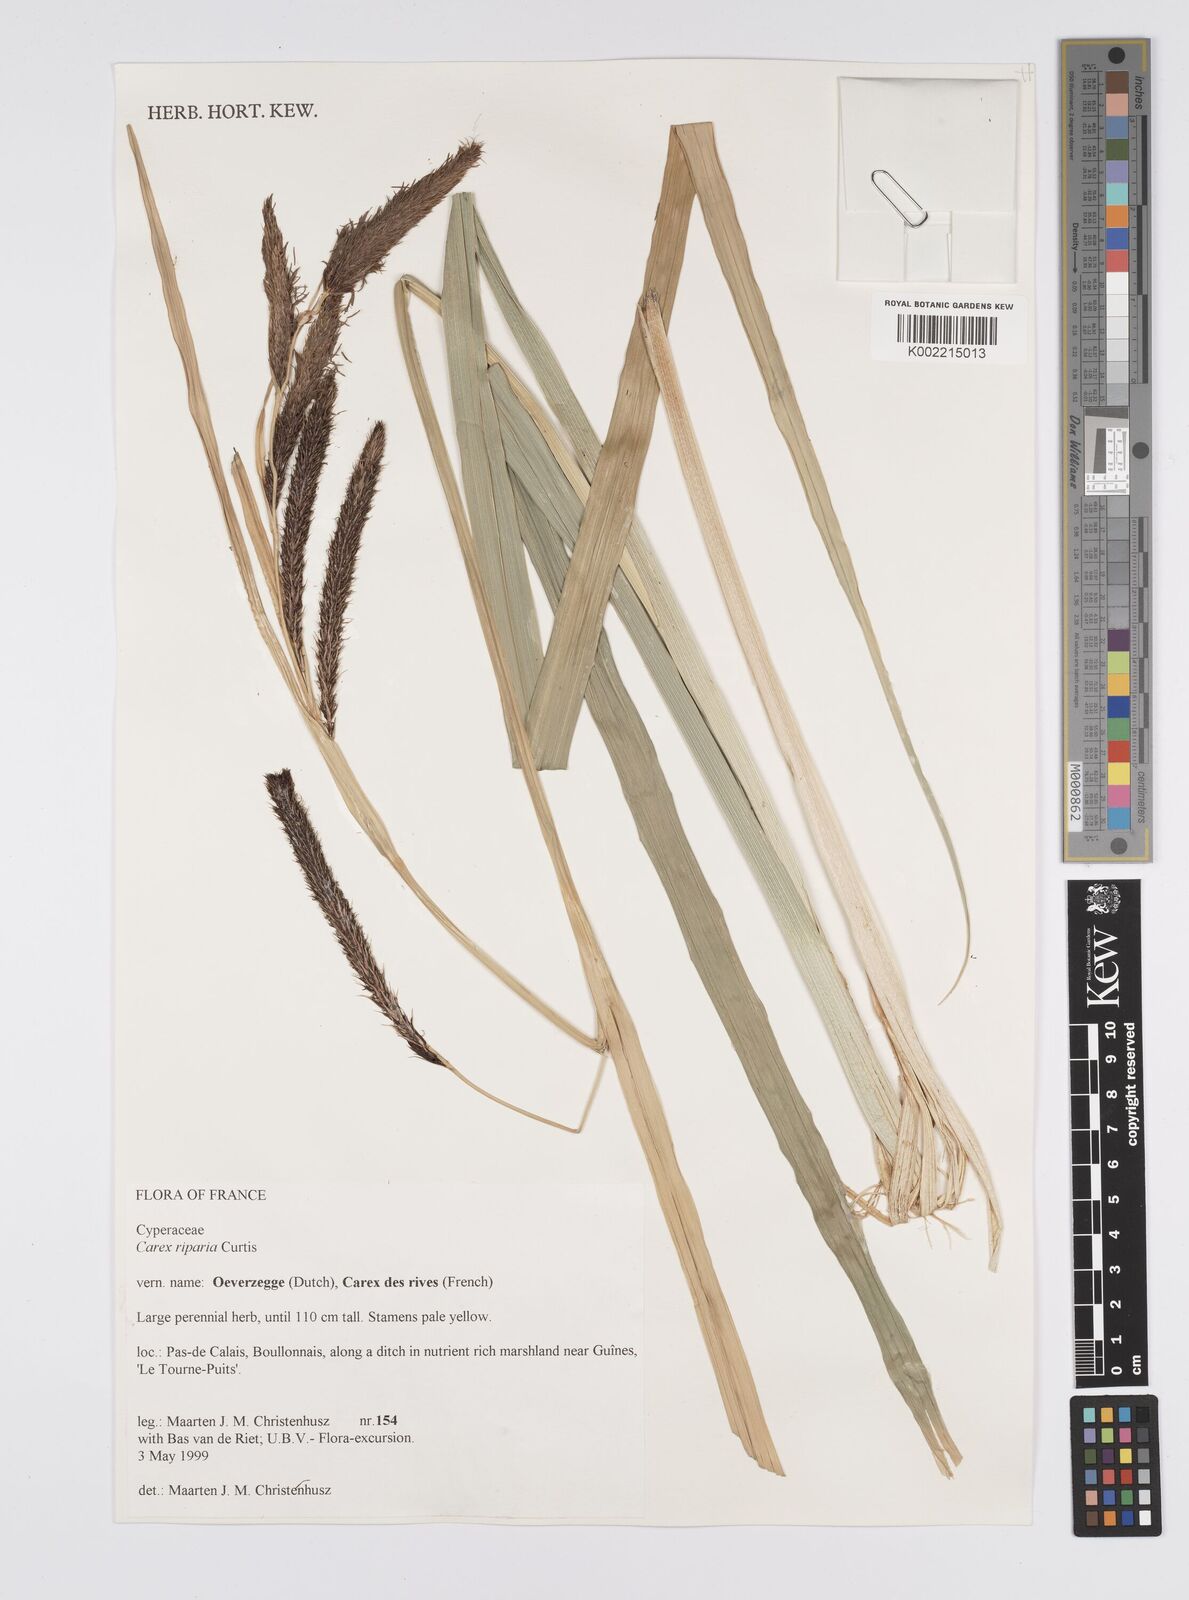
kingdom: Plantae
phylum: Tracheophyta
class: Liliopsida
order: Poales
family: Cyperaceae
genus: Carex
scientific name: Carex riparia
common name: Greater pond-sedge
